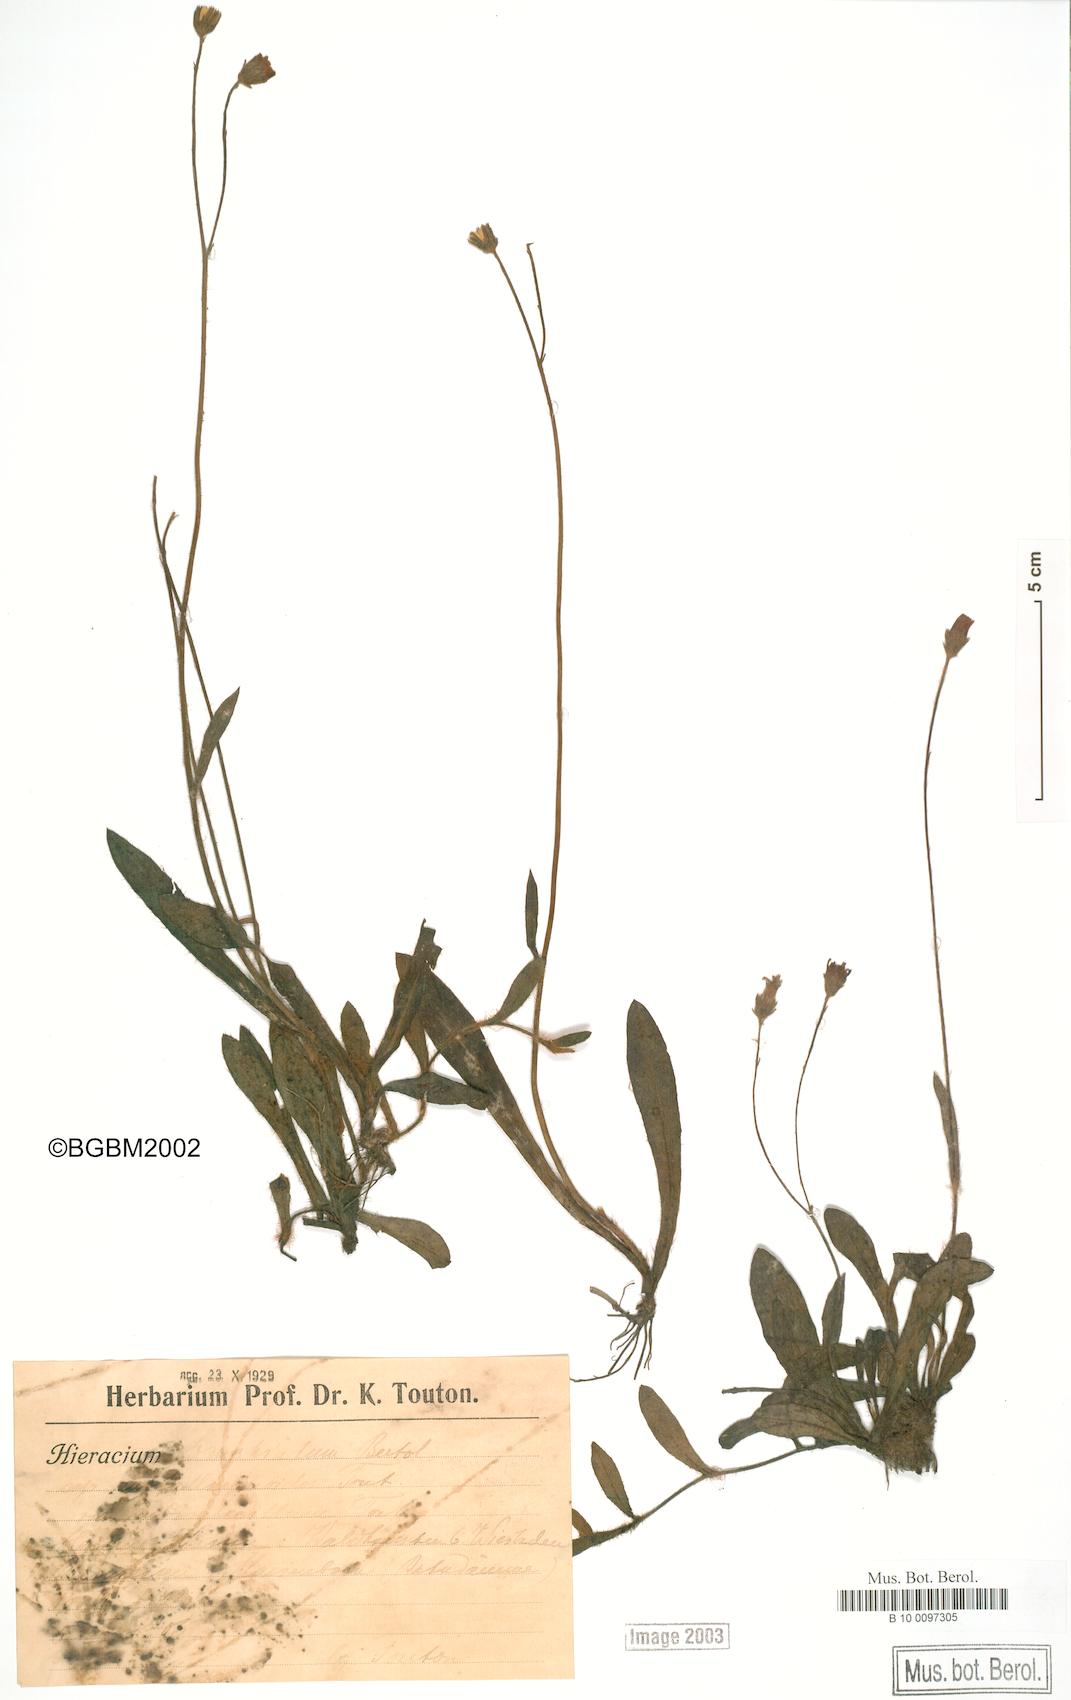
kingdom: Plantae
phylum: Tracheophyta
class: Magnoliopsida
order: Asterales
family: Asteraceae
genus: Pilosella
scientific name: Pilosella acutifolia
